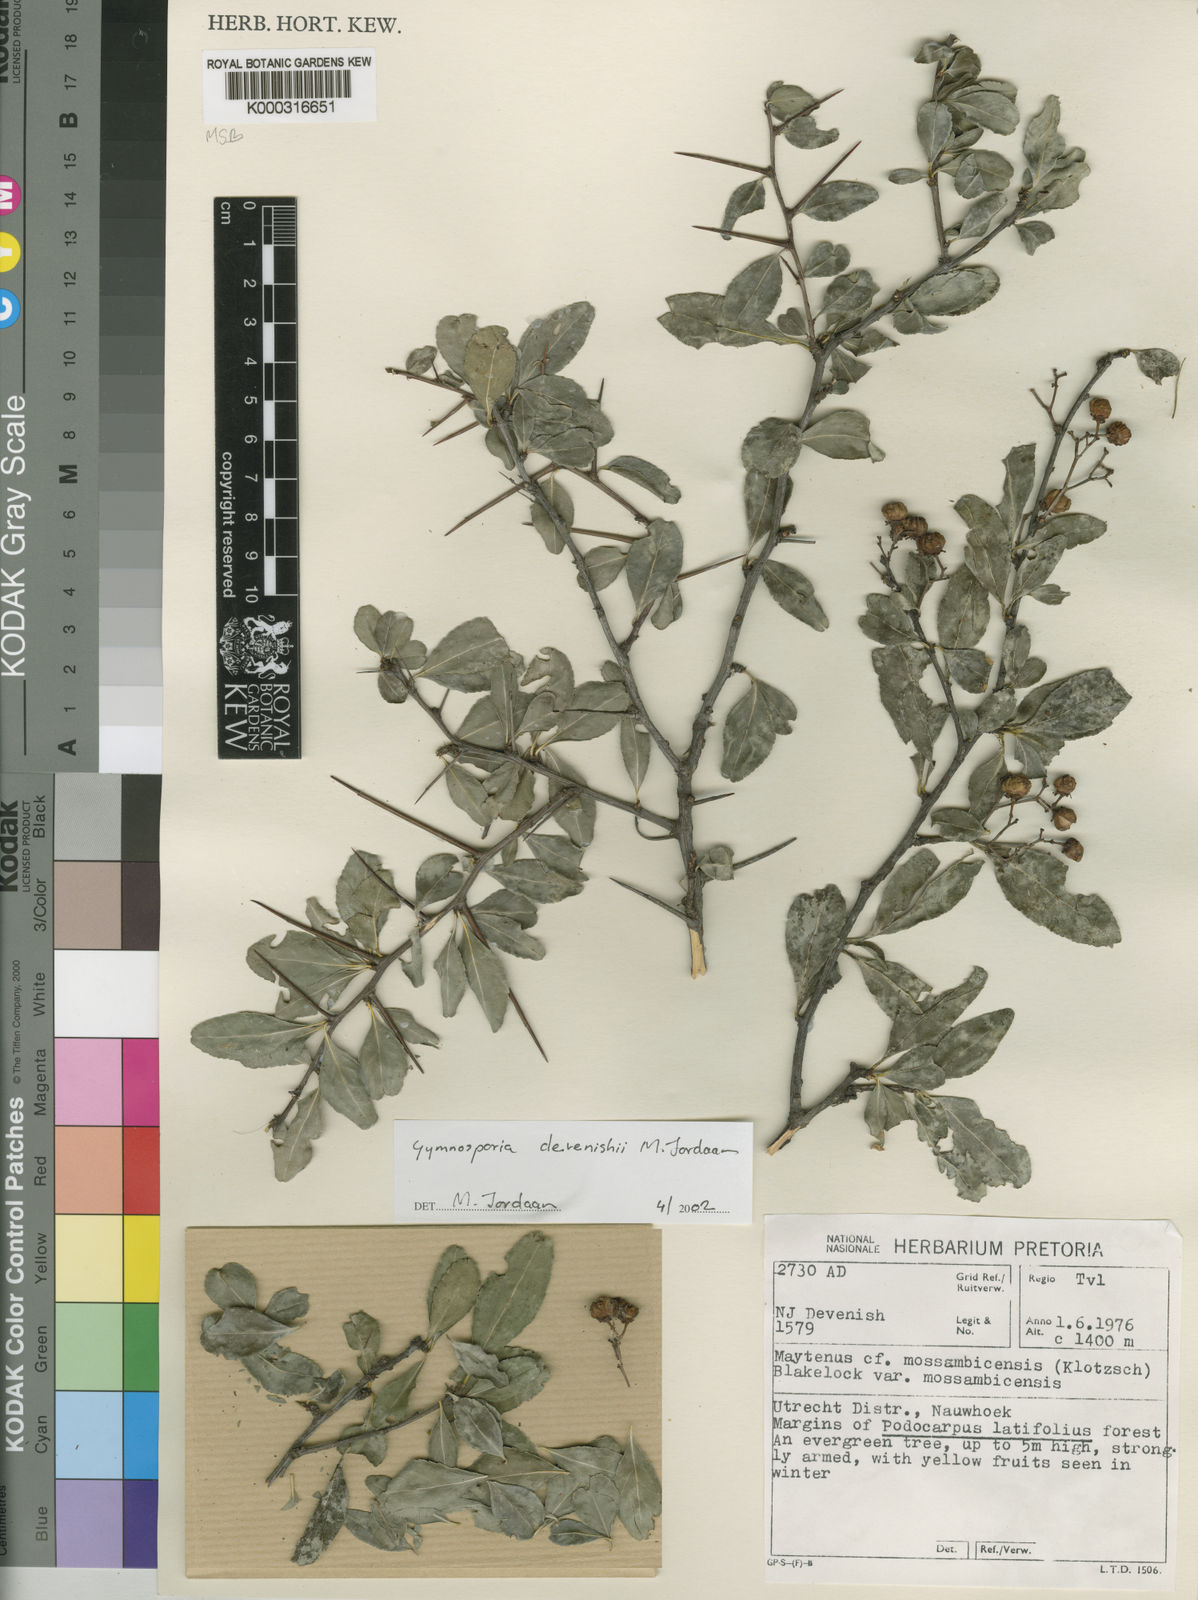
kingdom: Plantae
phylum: Tracheophyta
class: Magnoliopsida
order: Celastrales
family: Celastraceae
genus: Gymnosporia
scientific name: Gymnosporia devenishii
